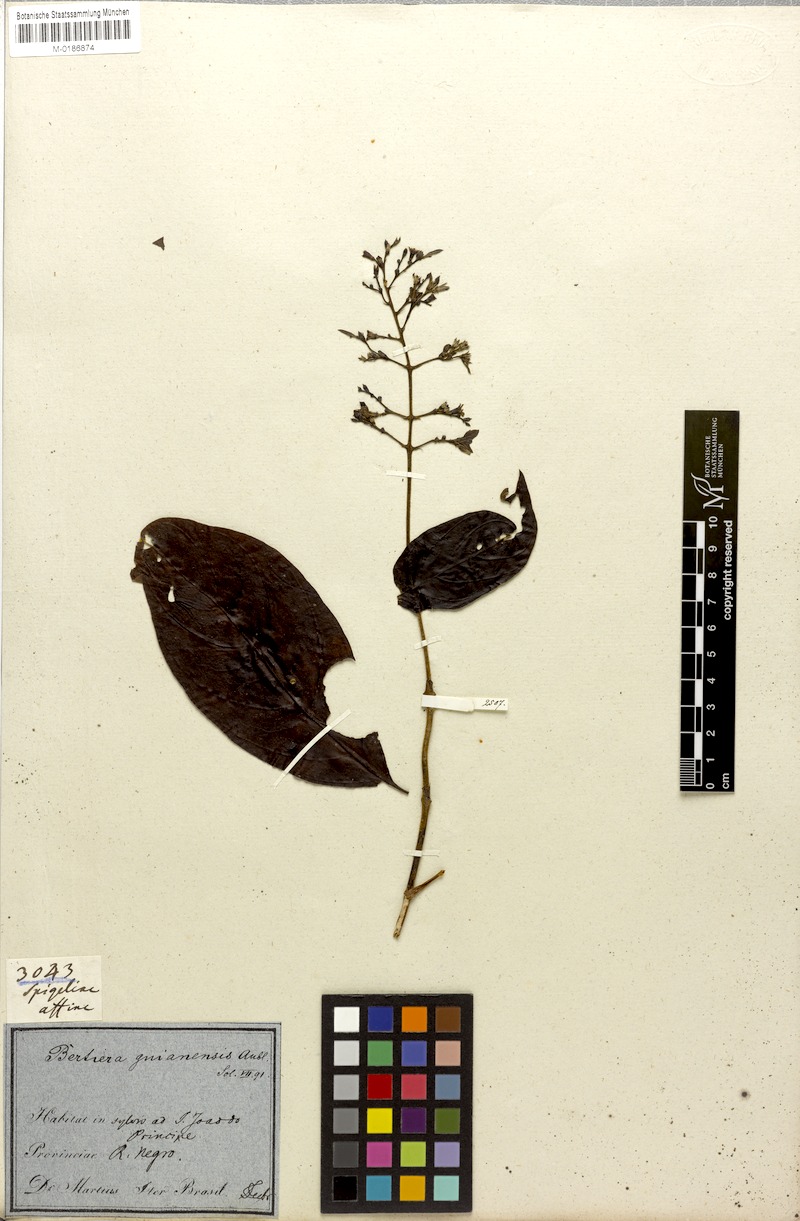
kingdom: Plantae
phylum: Tracheophyta
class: Magnoliopsida
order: Gentianales
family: Rubiaceae
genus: Bertiera
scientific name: Bertiera guianensis
